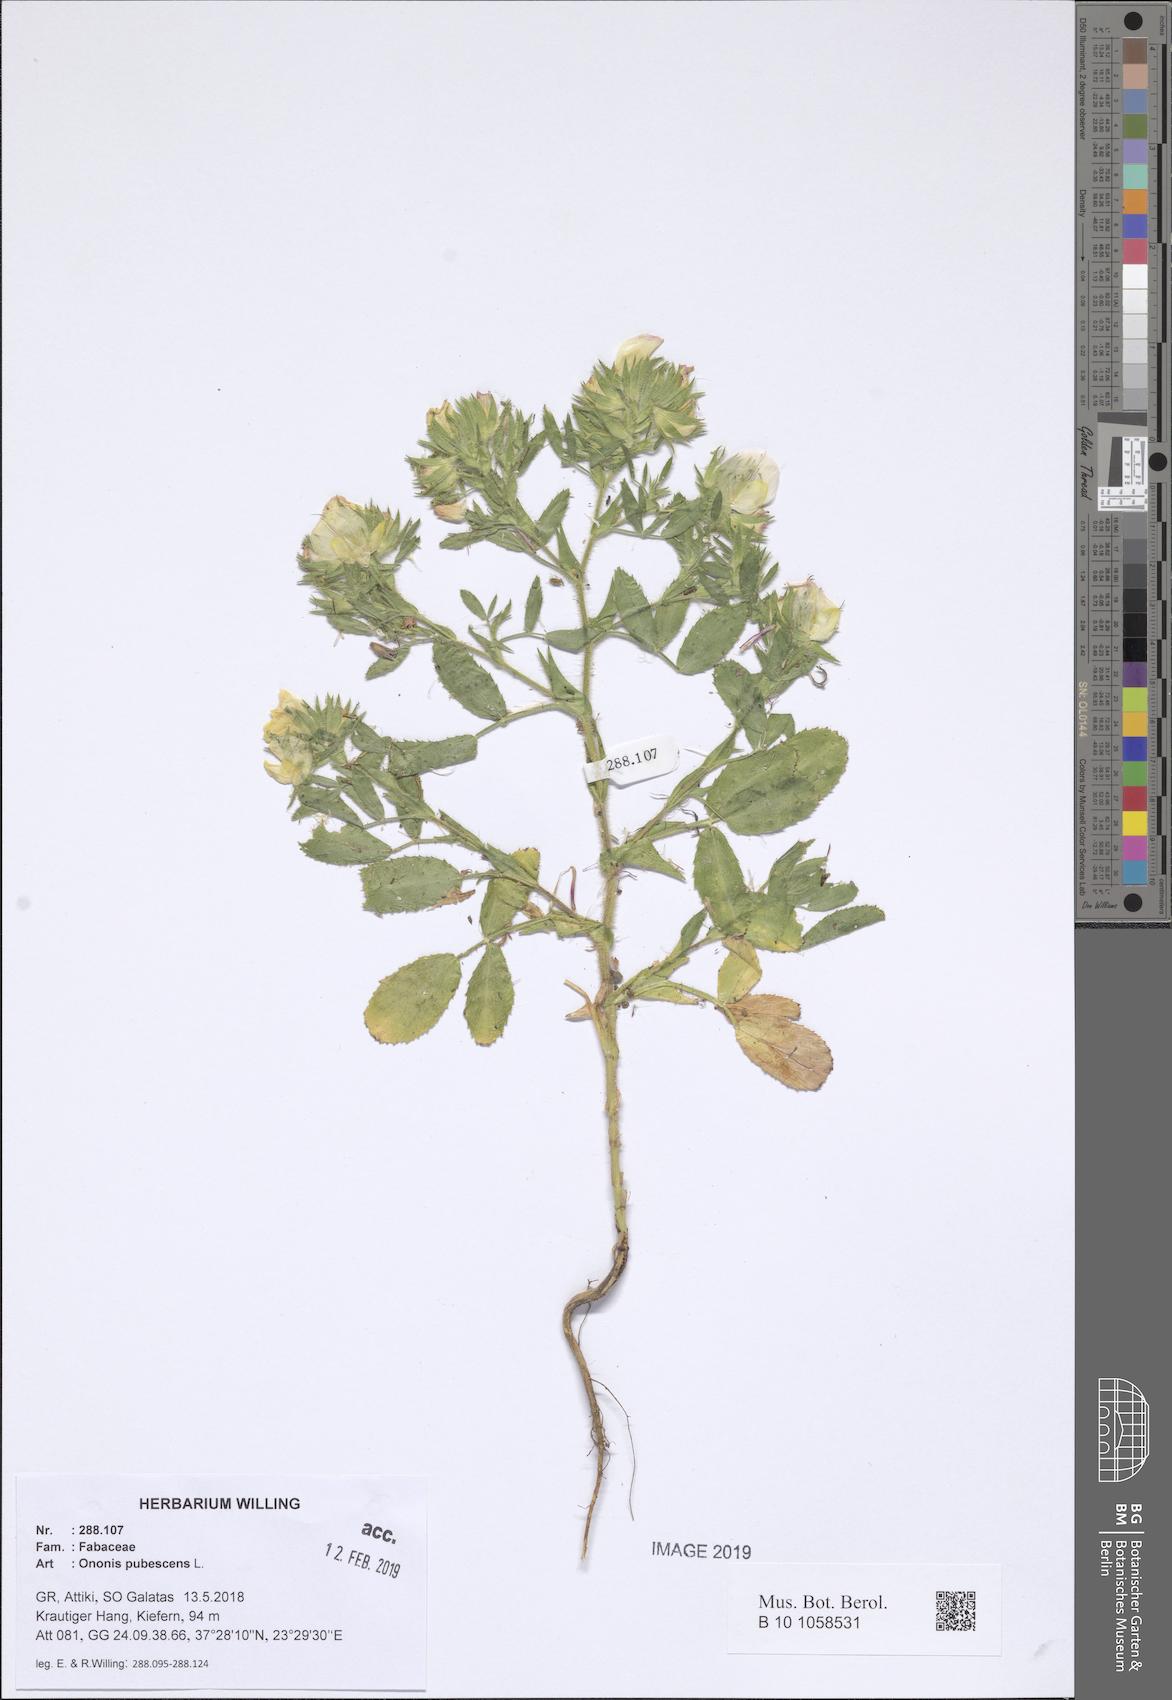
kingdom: Plantae
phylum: Tracheophyta
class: Magnoliopsida
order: Fabales
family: Fabaceae
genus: Ononis
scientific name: Ononis pubescens
